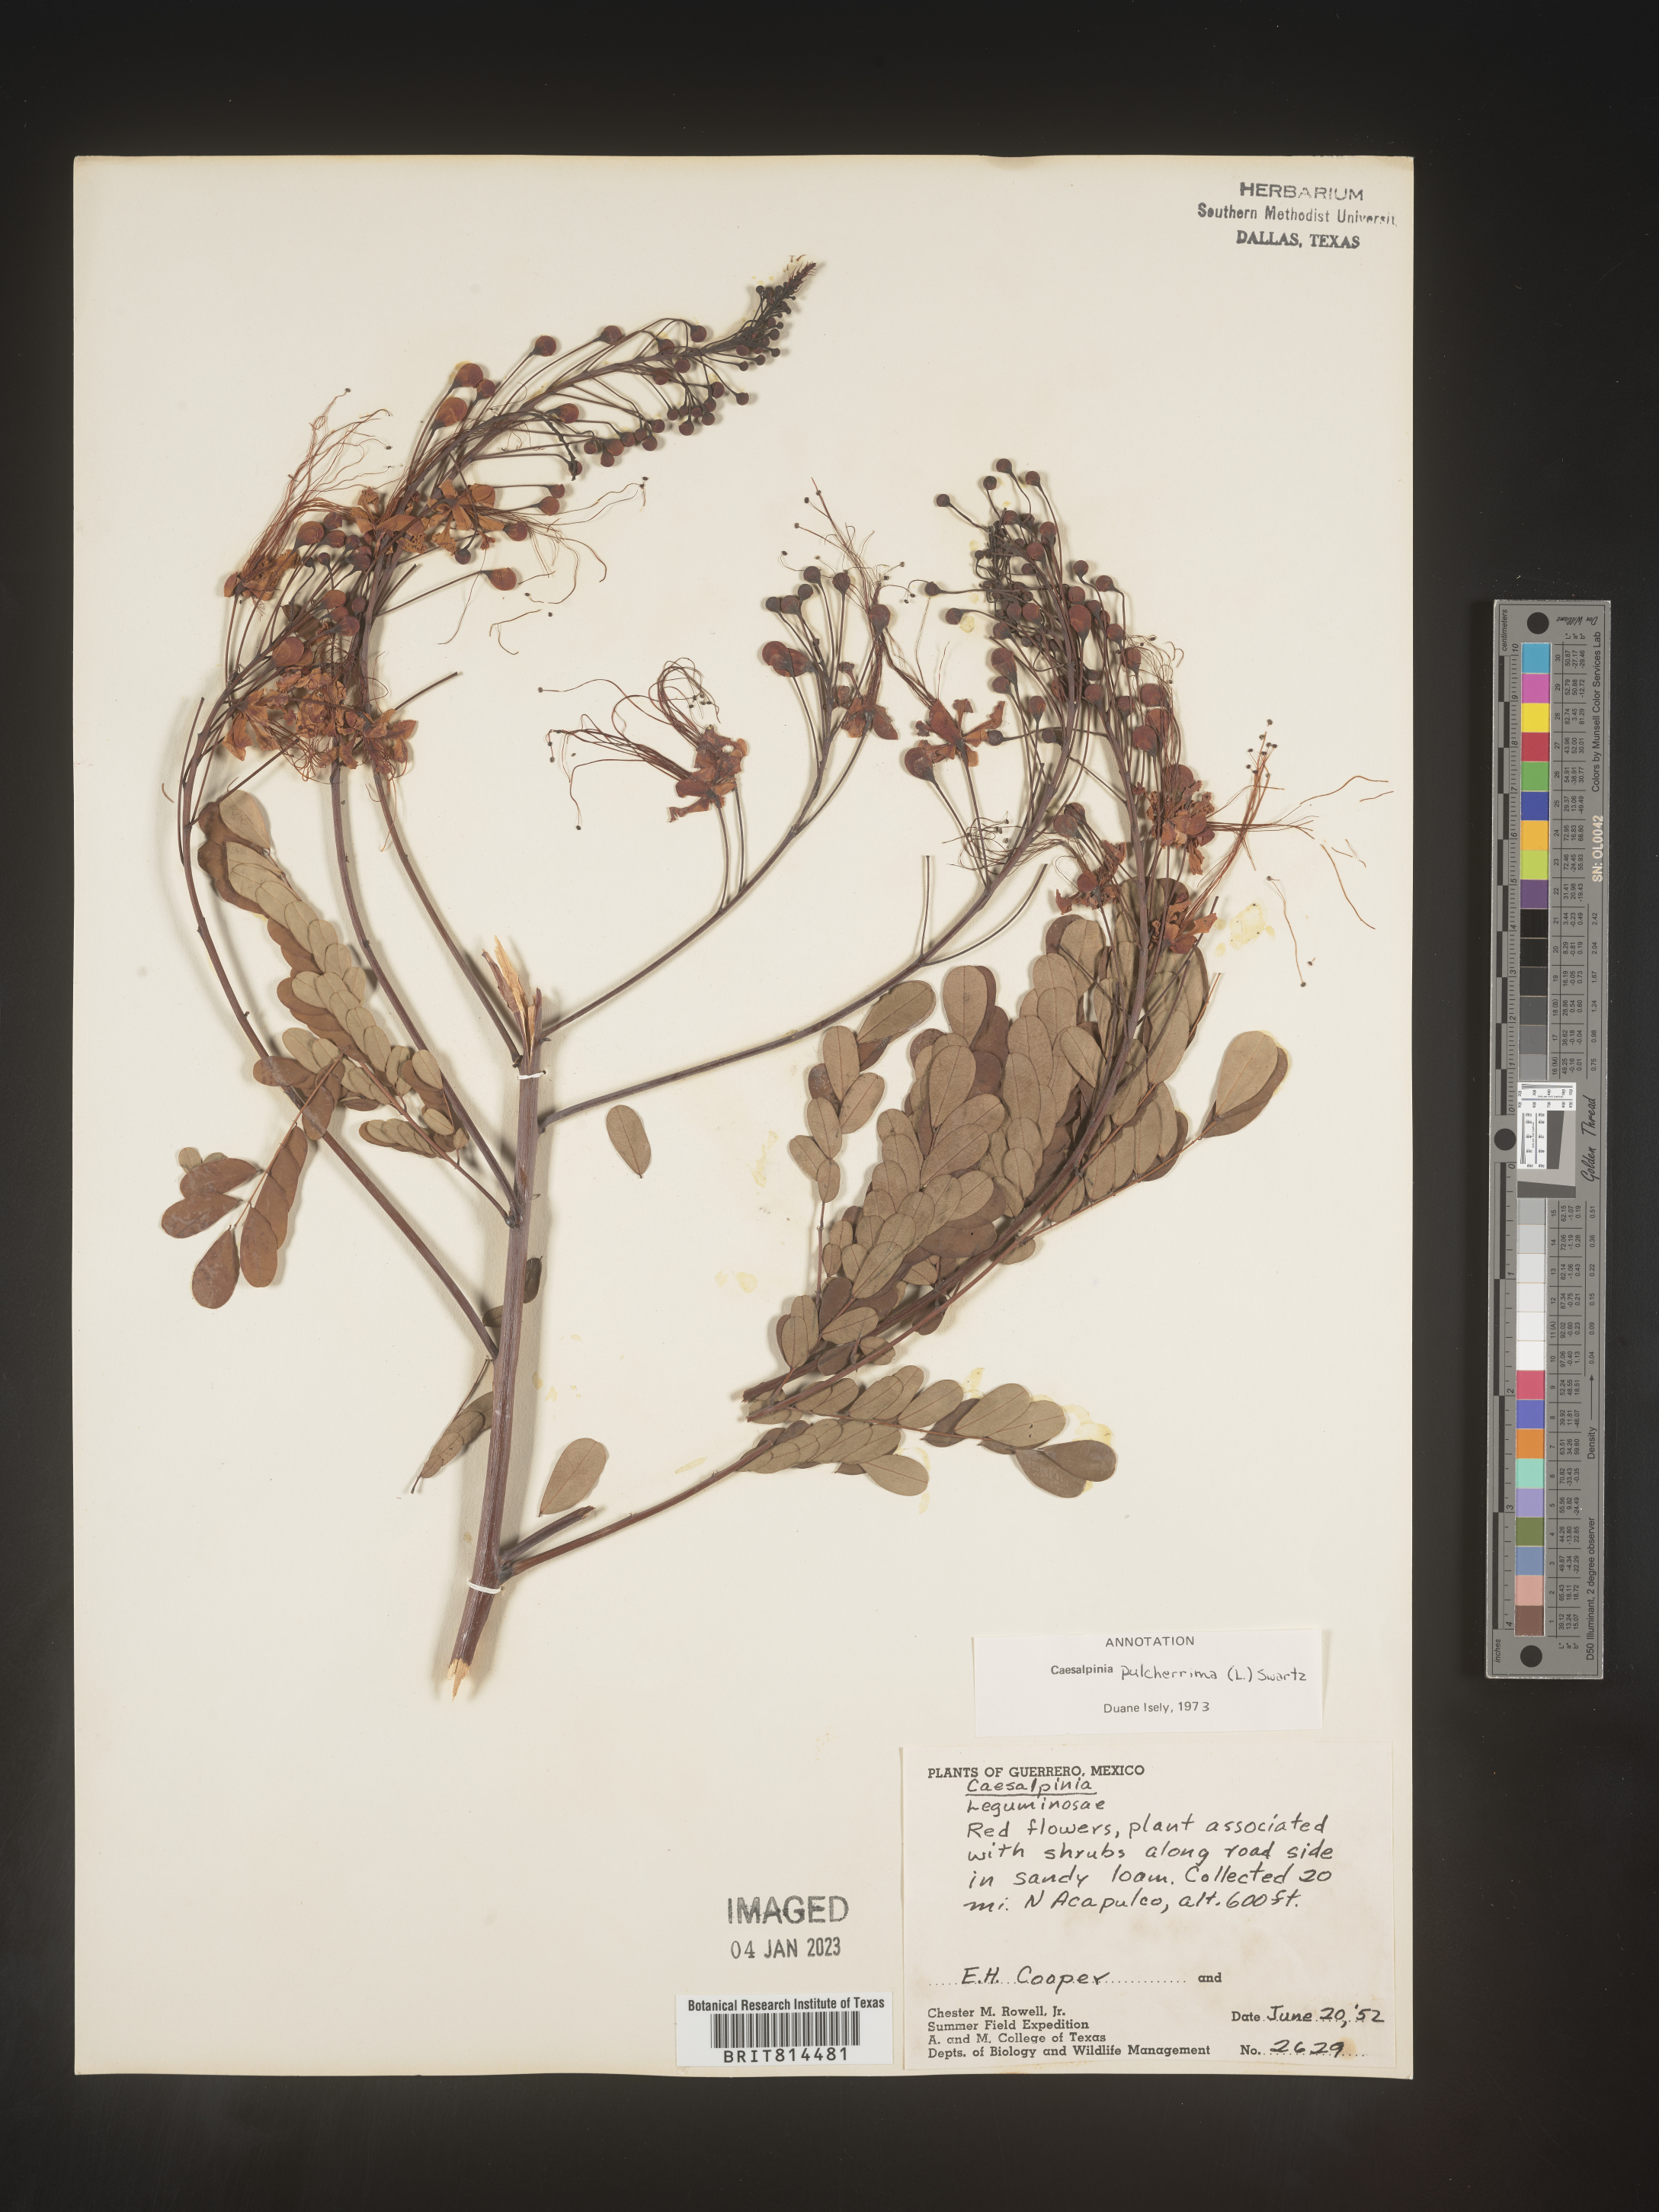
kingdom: Plantae
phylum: Tracheophyta
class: Magnoliopsida
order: Fabales
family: Fabaceae
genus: Caesalpinia
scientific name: Caesalpinia
